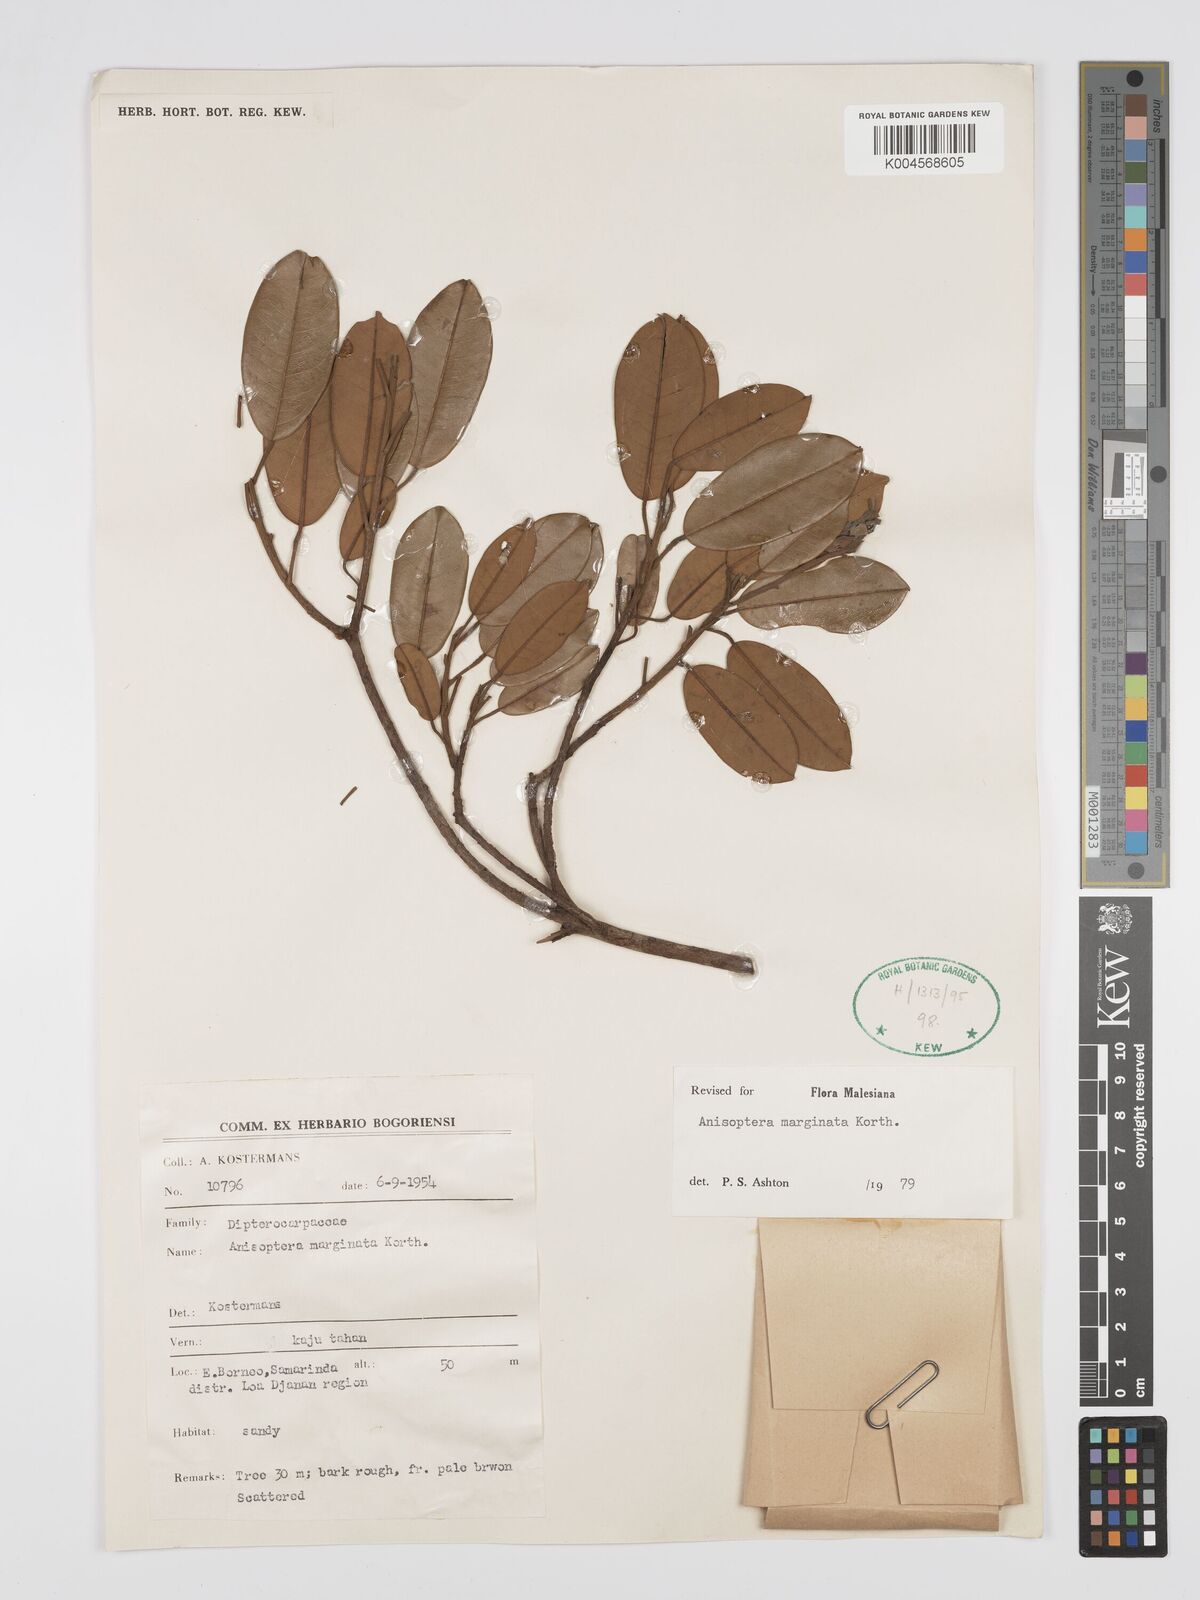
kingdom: Plantae
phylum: Tracheophyta
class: Magnoliopsida
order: Malvales
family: Dipterocarpaceae
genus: Anisoptera
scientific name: Anisoptera marginata
